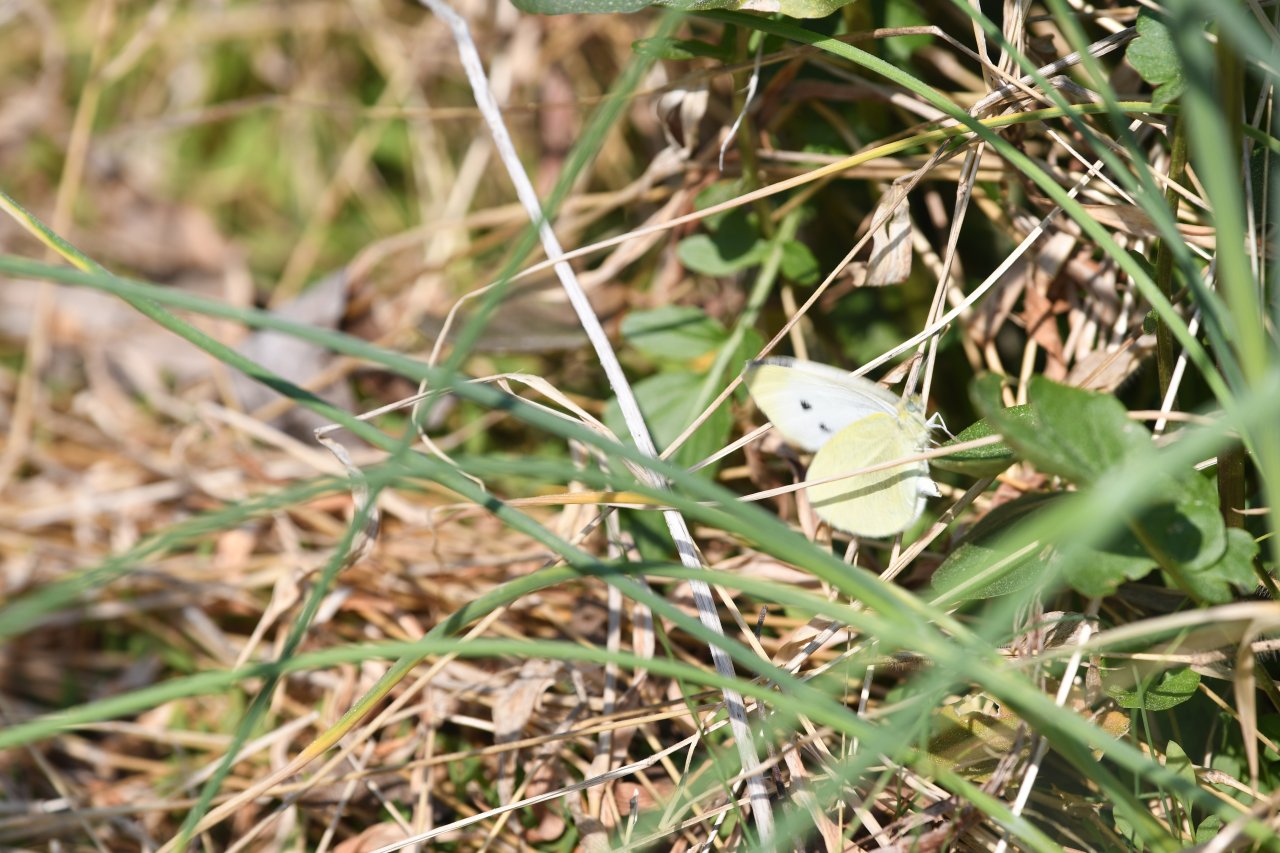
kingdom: Animalia
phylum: Arthropoda
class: Insecta
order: Lepidoptera
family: Pieridae
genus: Pieris
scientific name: Pieris rapae
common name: Cabbage White
